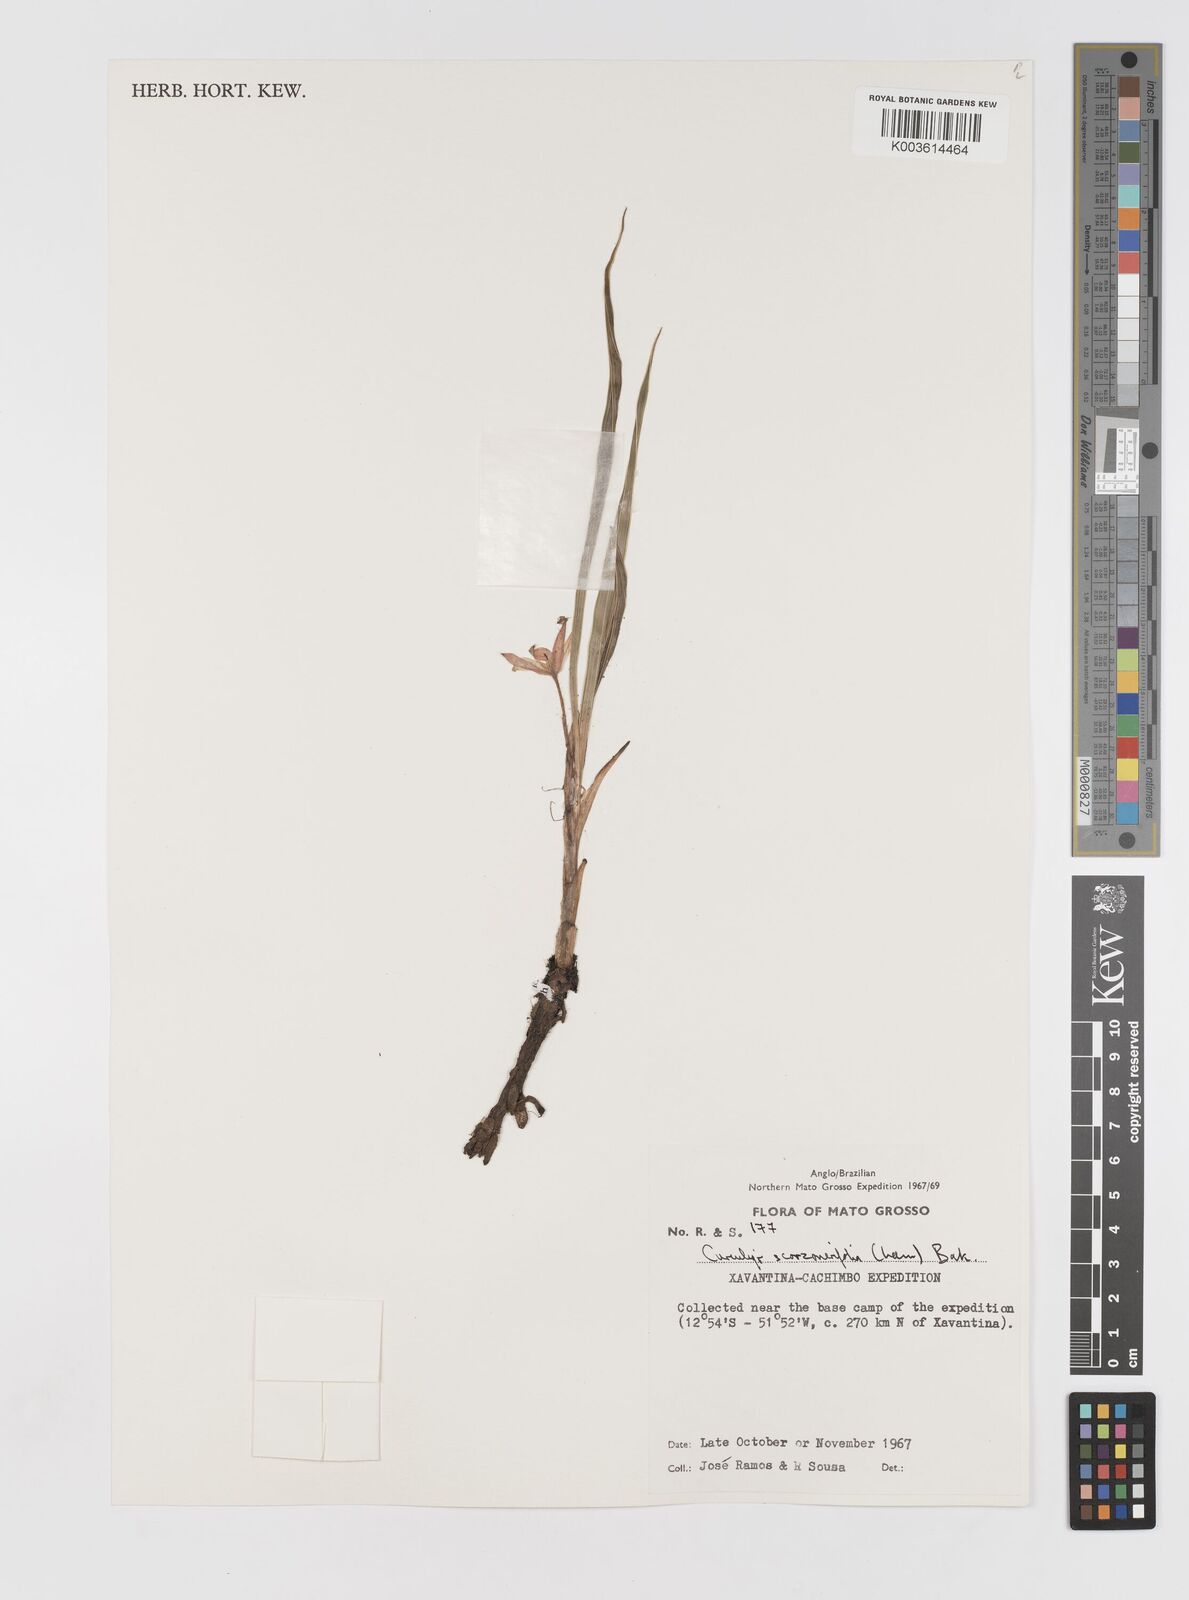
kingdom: Plantae
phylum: Tracheophyta
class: Liliopsida
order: Asparagales
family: Hypoxidaceae
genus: Curculigo
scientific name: Curculigo scorzonerifolia
